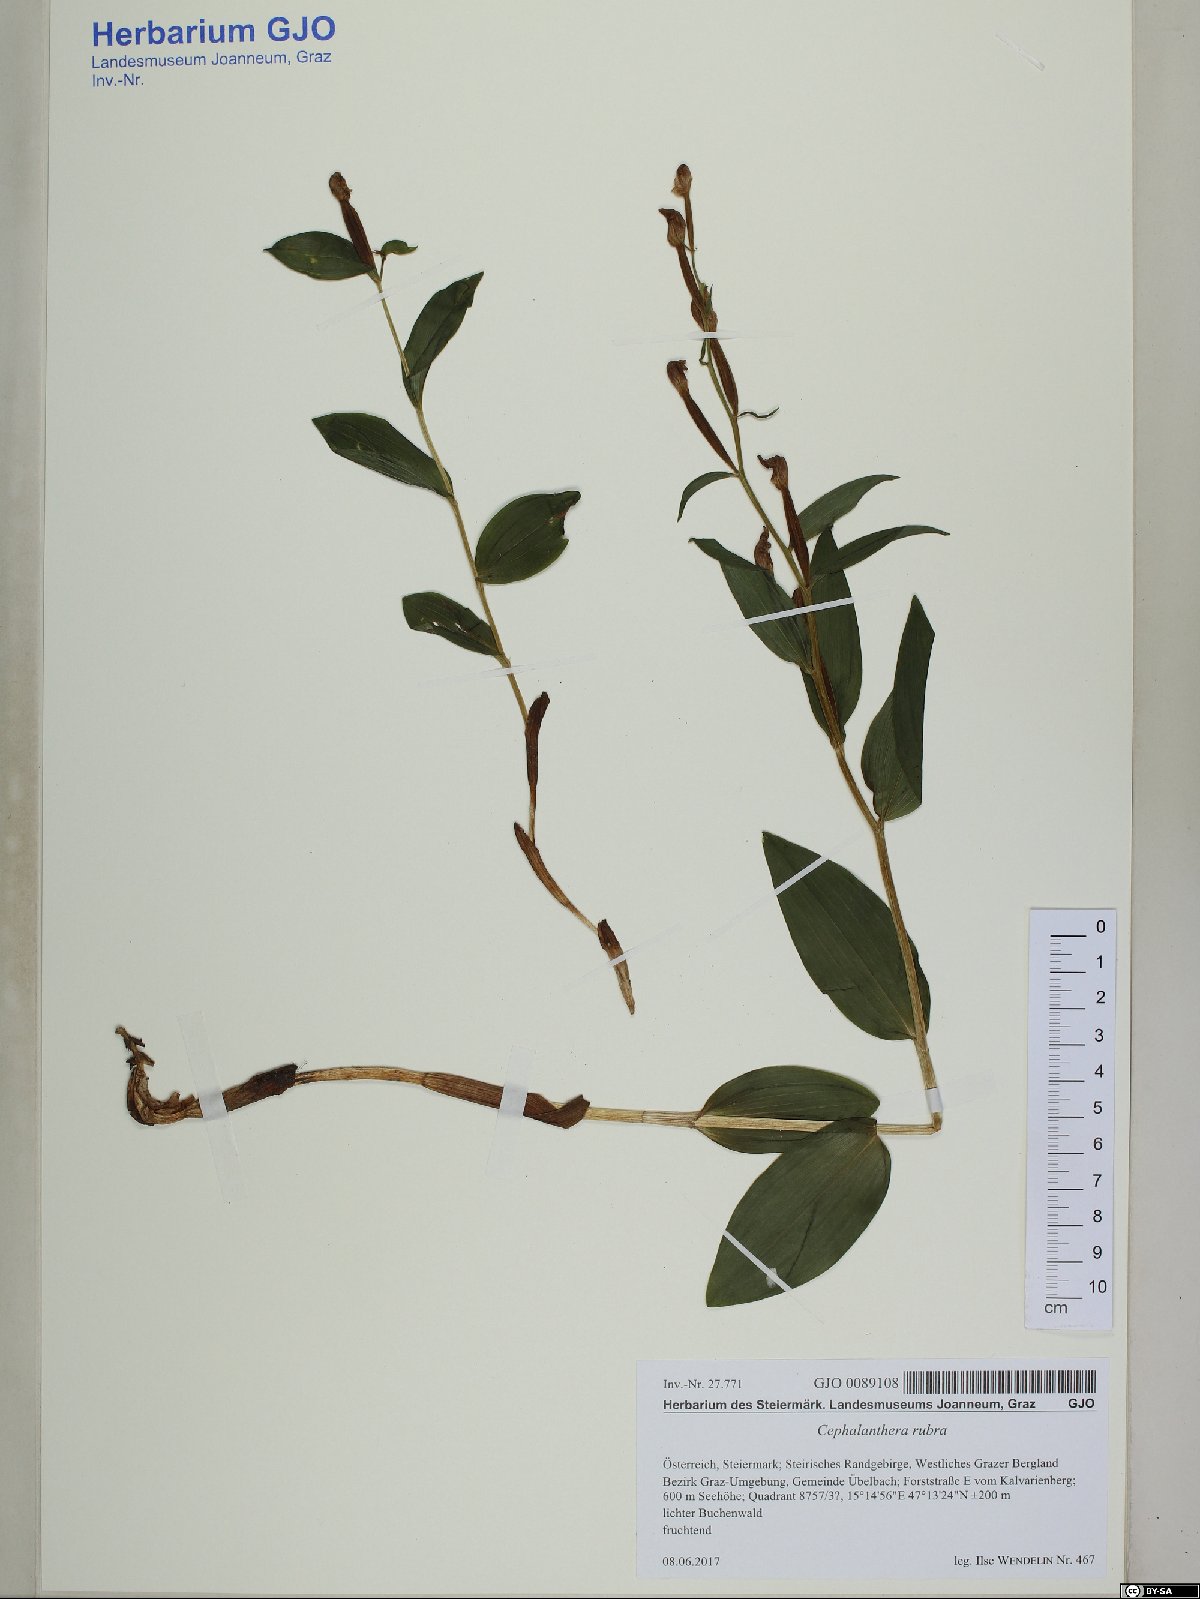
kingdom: Plantae
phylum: Tracheophyta
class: Liliopsida
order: Asparagales
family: Orchidaceae
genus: Cephalanthera
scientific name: Cephalanthera rubra
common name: Red helleborine
